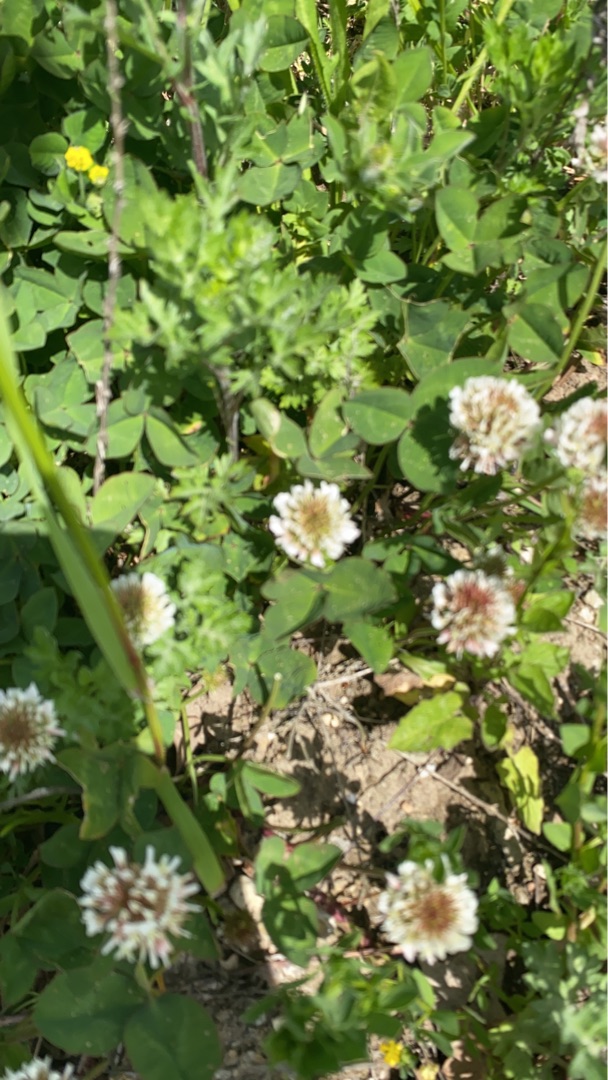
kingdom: Plantae
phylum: Tracheophyta
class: Magnoliopsida
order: Fabales
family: Fabaceae
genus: Trifolium
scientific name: Trifolium repens
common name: Hvid-kløver
